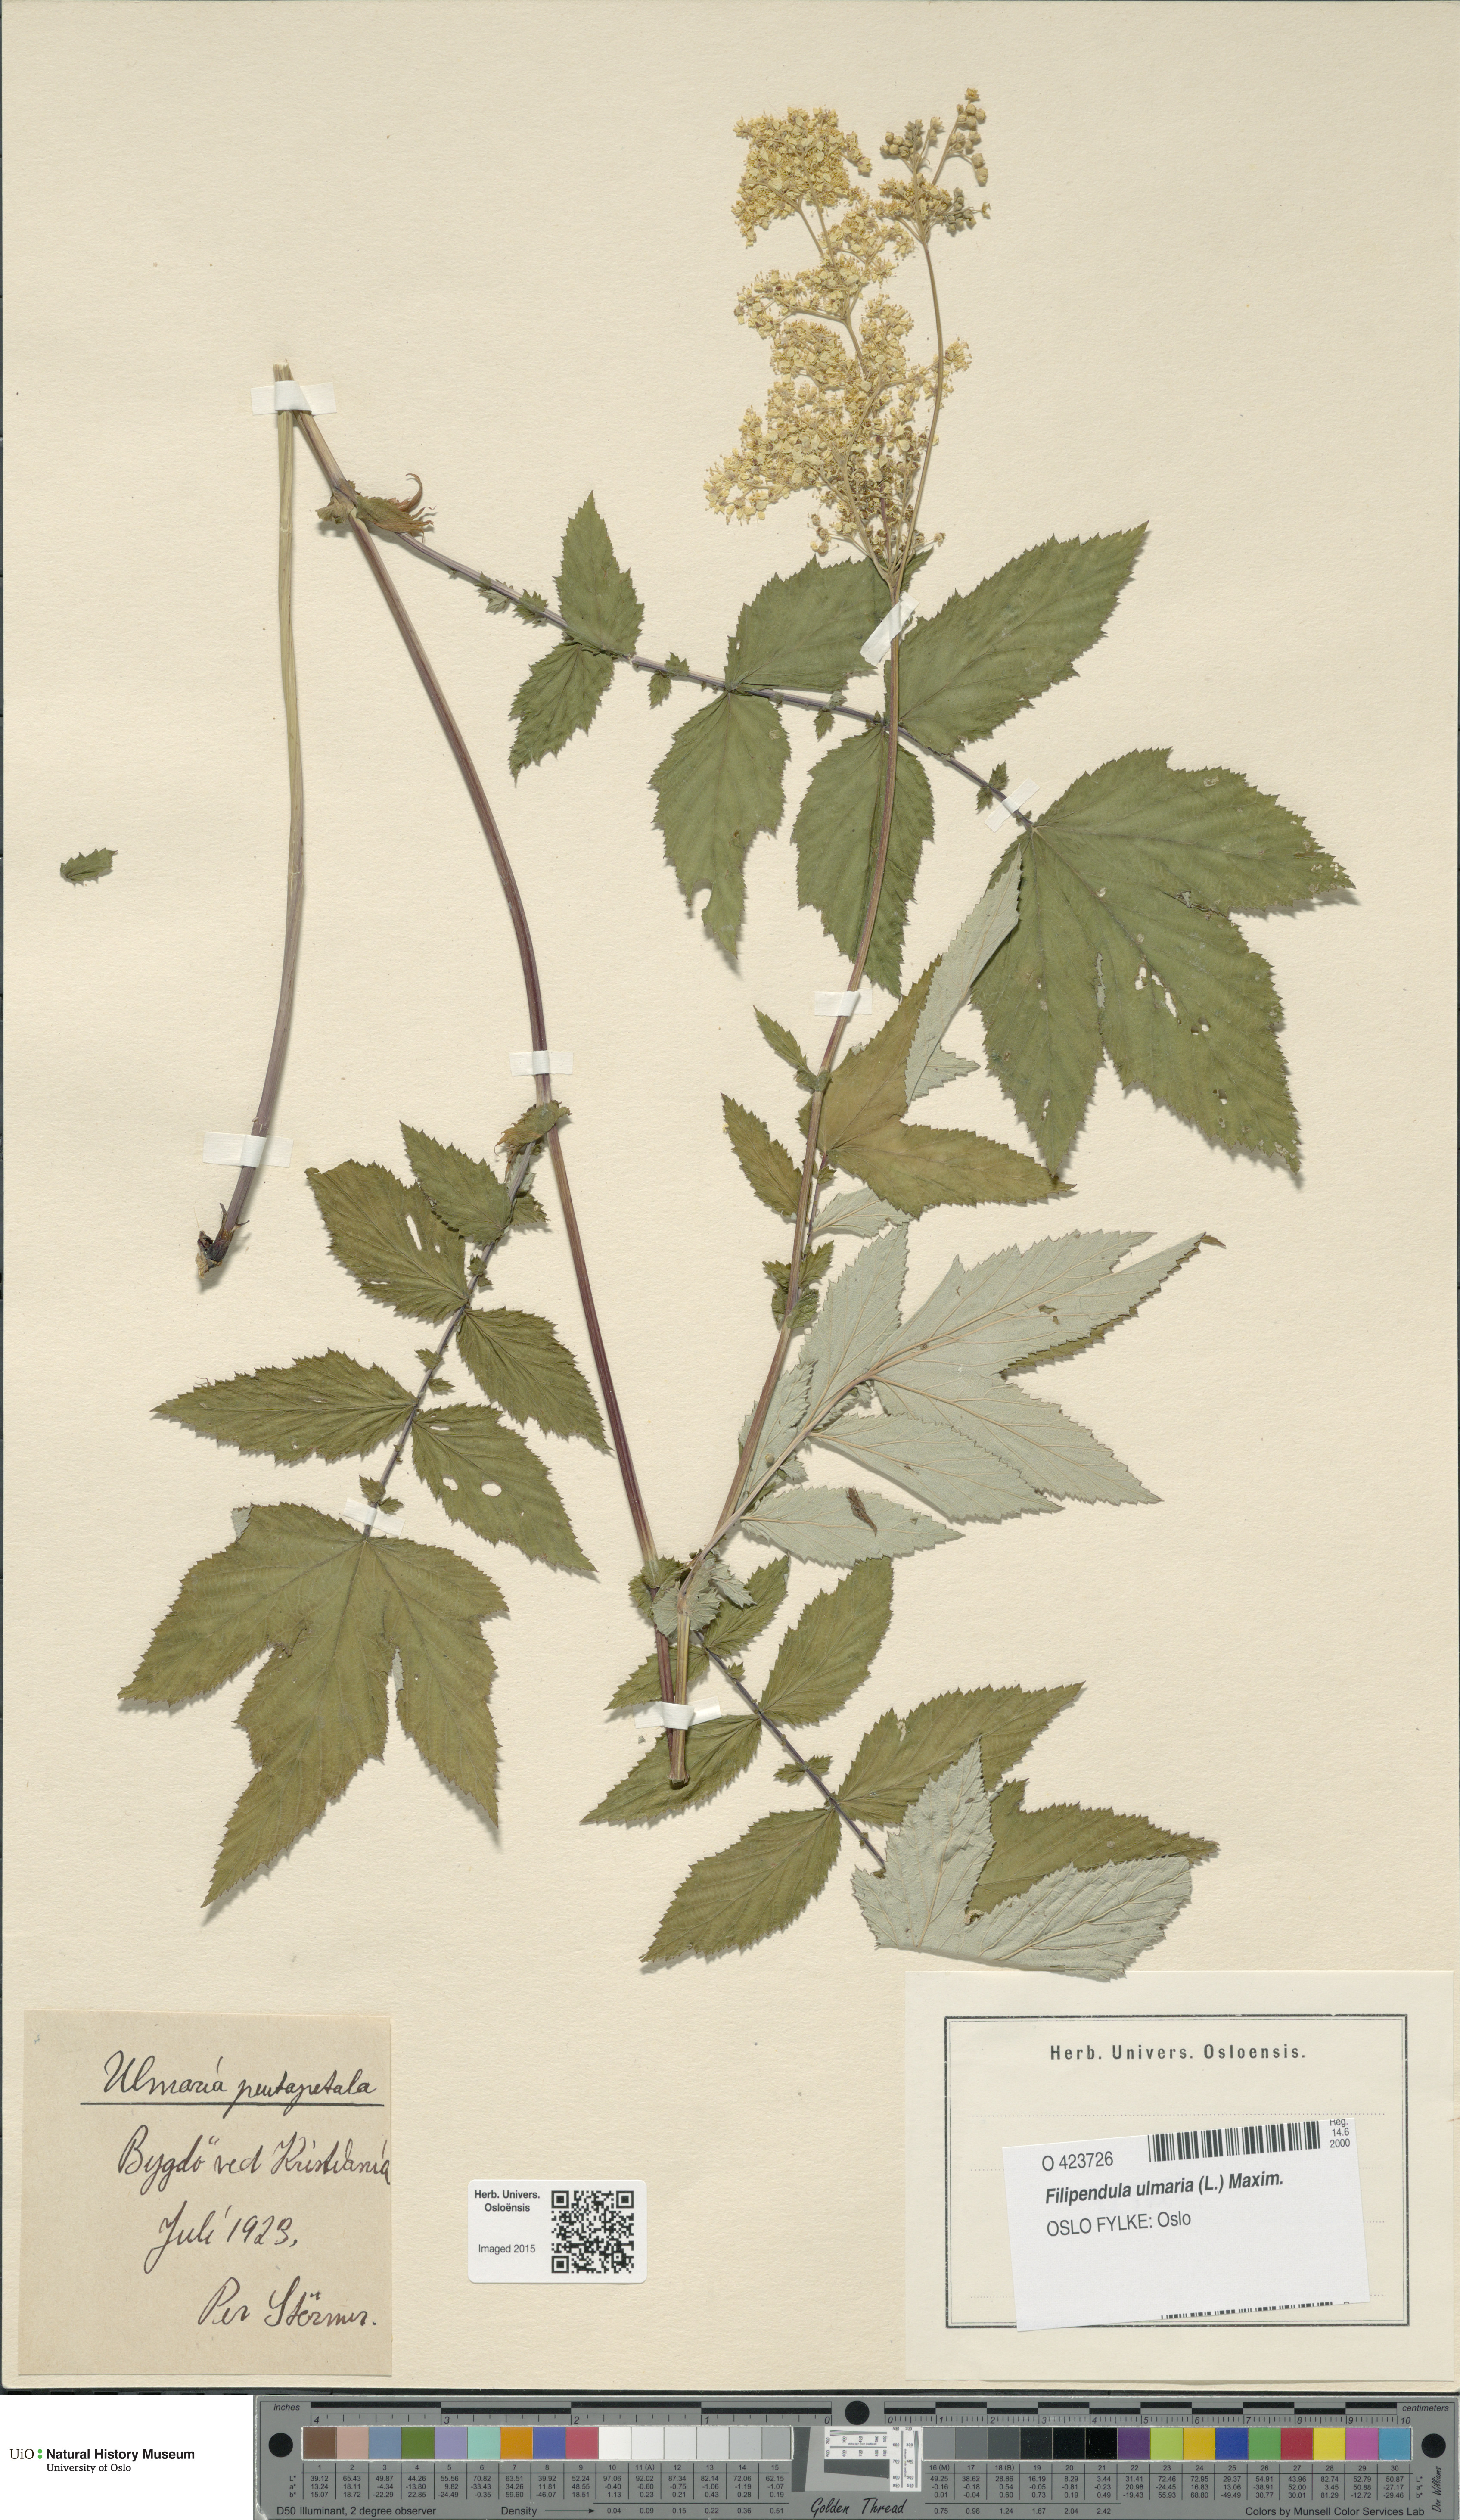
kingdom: Plantae
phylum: Tracheophyta
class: Magnoliopsida
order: Rosales
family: Rosaceae
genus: Filipendula
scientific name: Filipendula ulmaria
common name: Meadowsweet
